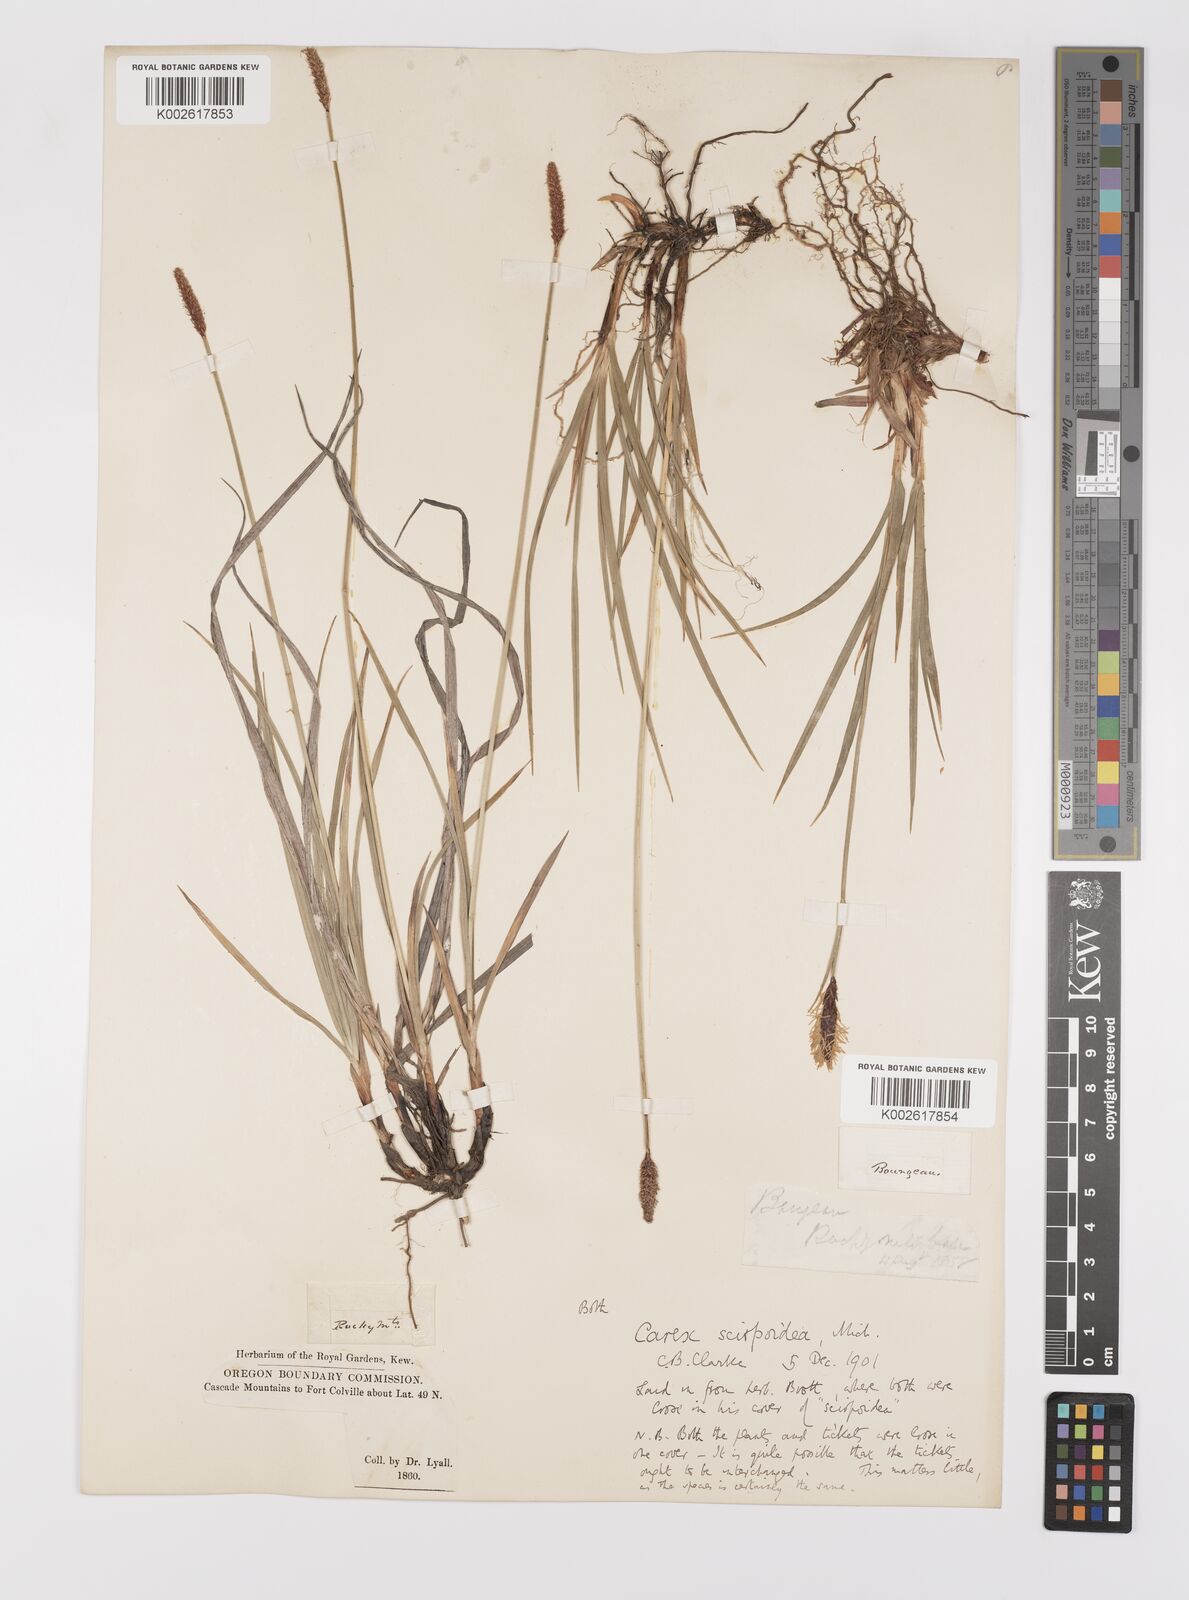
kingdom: Plantae
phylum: Tracheophyta
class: Liliopsida
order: Poales
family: Cyperaceae
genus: Carex
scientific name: Carex scirpoidea
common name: Canada single-spike sedge
